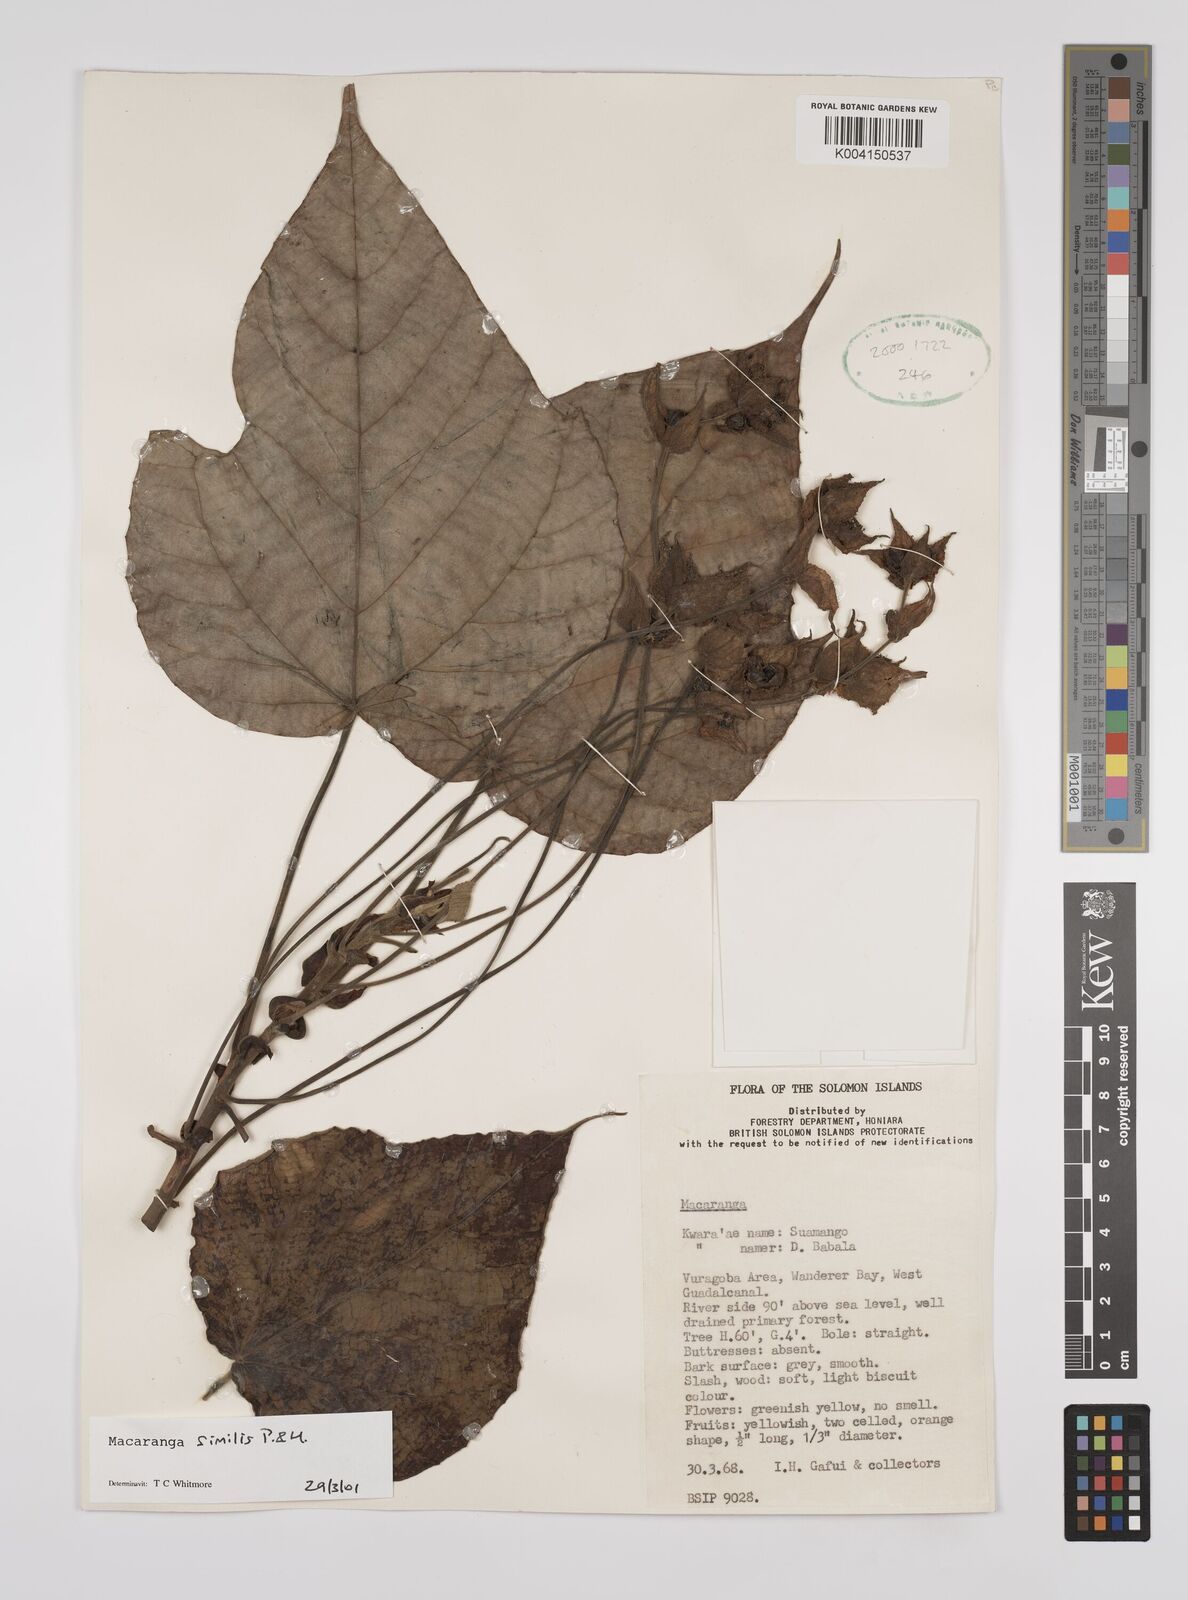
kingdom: Plantae
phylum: Tracheophyta
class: Magnoliopsida
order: Malpighiales
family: Euphorbiaceae
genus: Macaranga
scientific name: Macaranga similis
